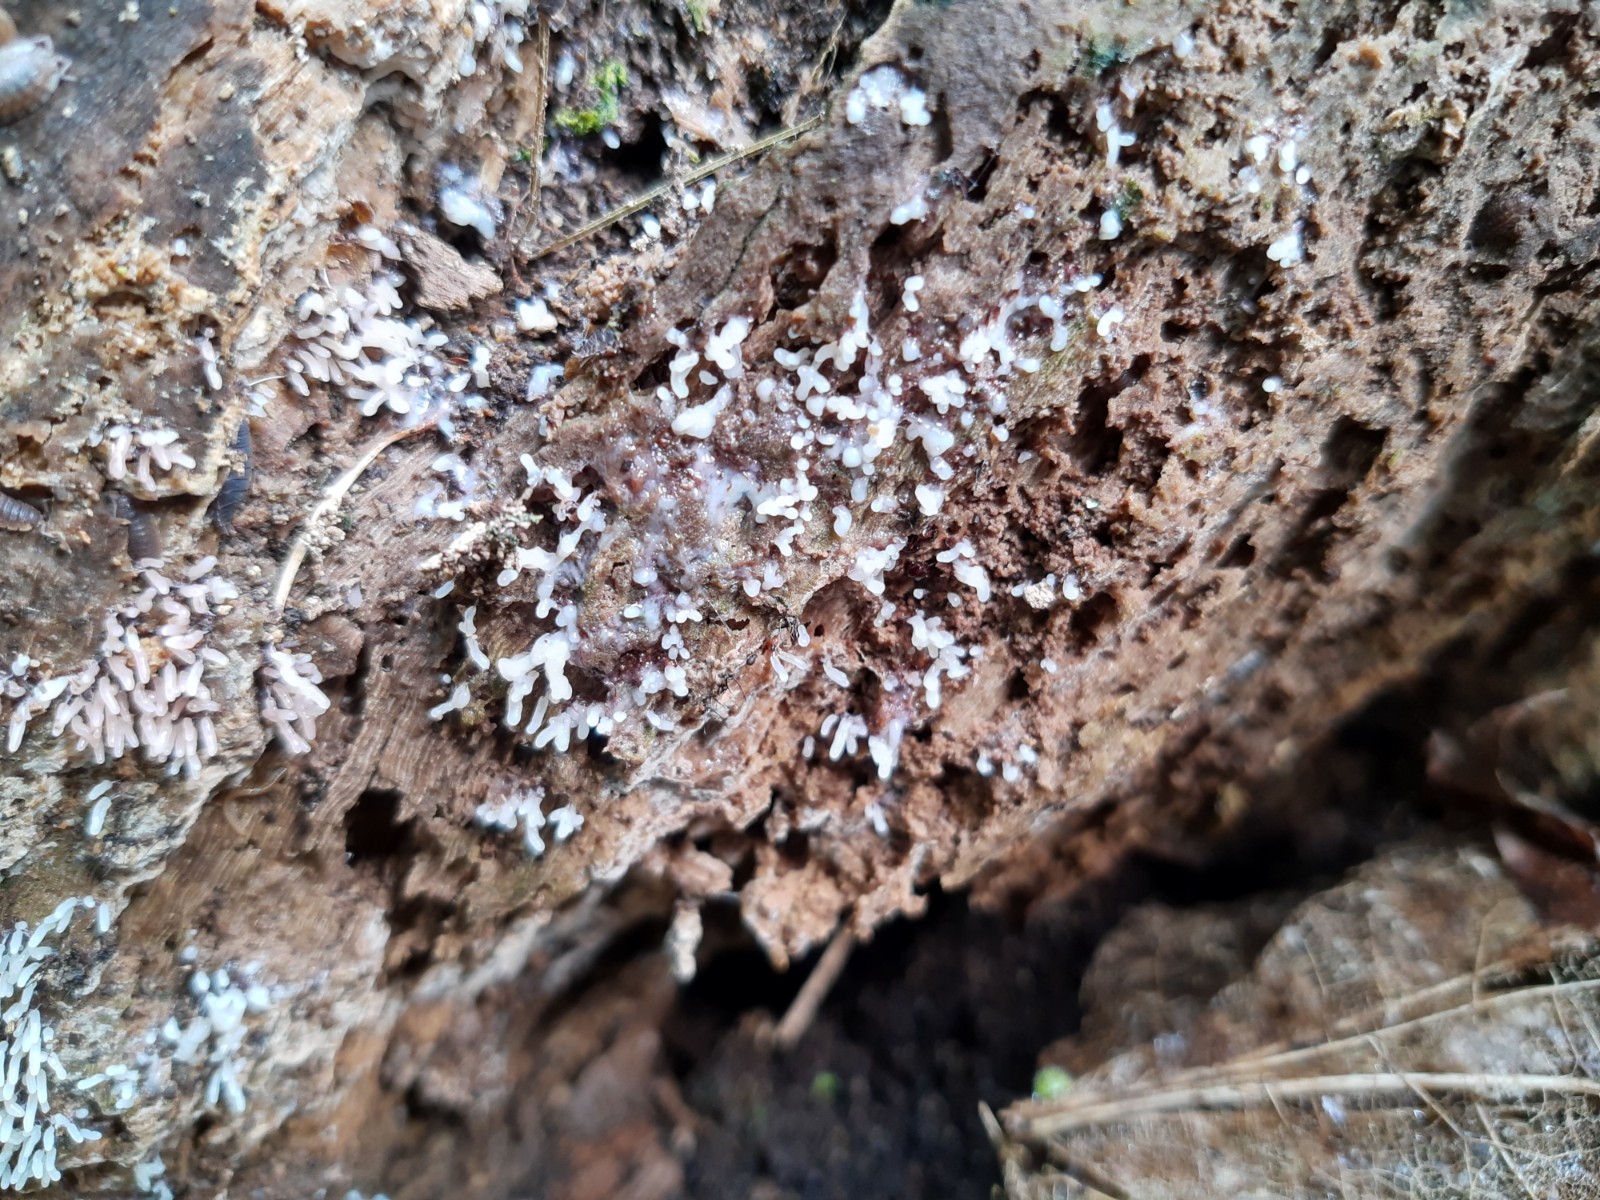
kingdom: Protozoa
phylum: Mycetozoa
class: Myxomycetes
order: Stemonitidales
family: Stemonitidaceae
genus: Stemonitopsis
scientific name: Stemonitopsis
